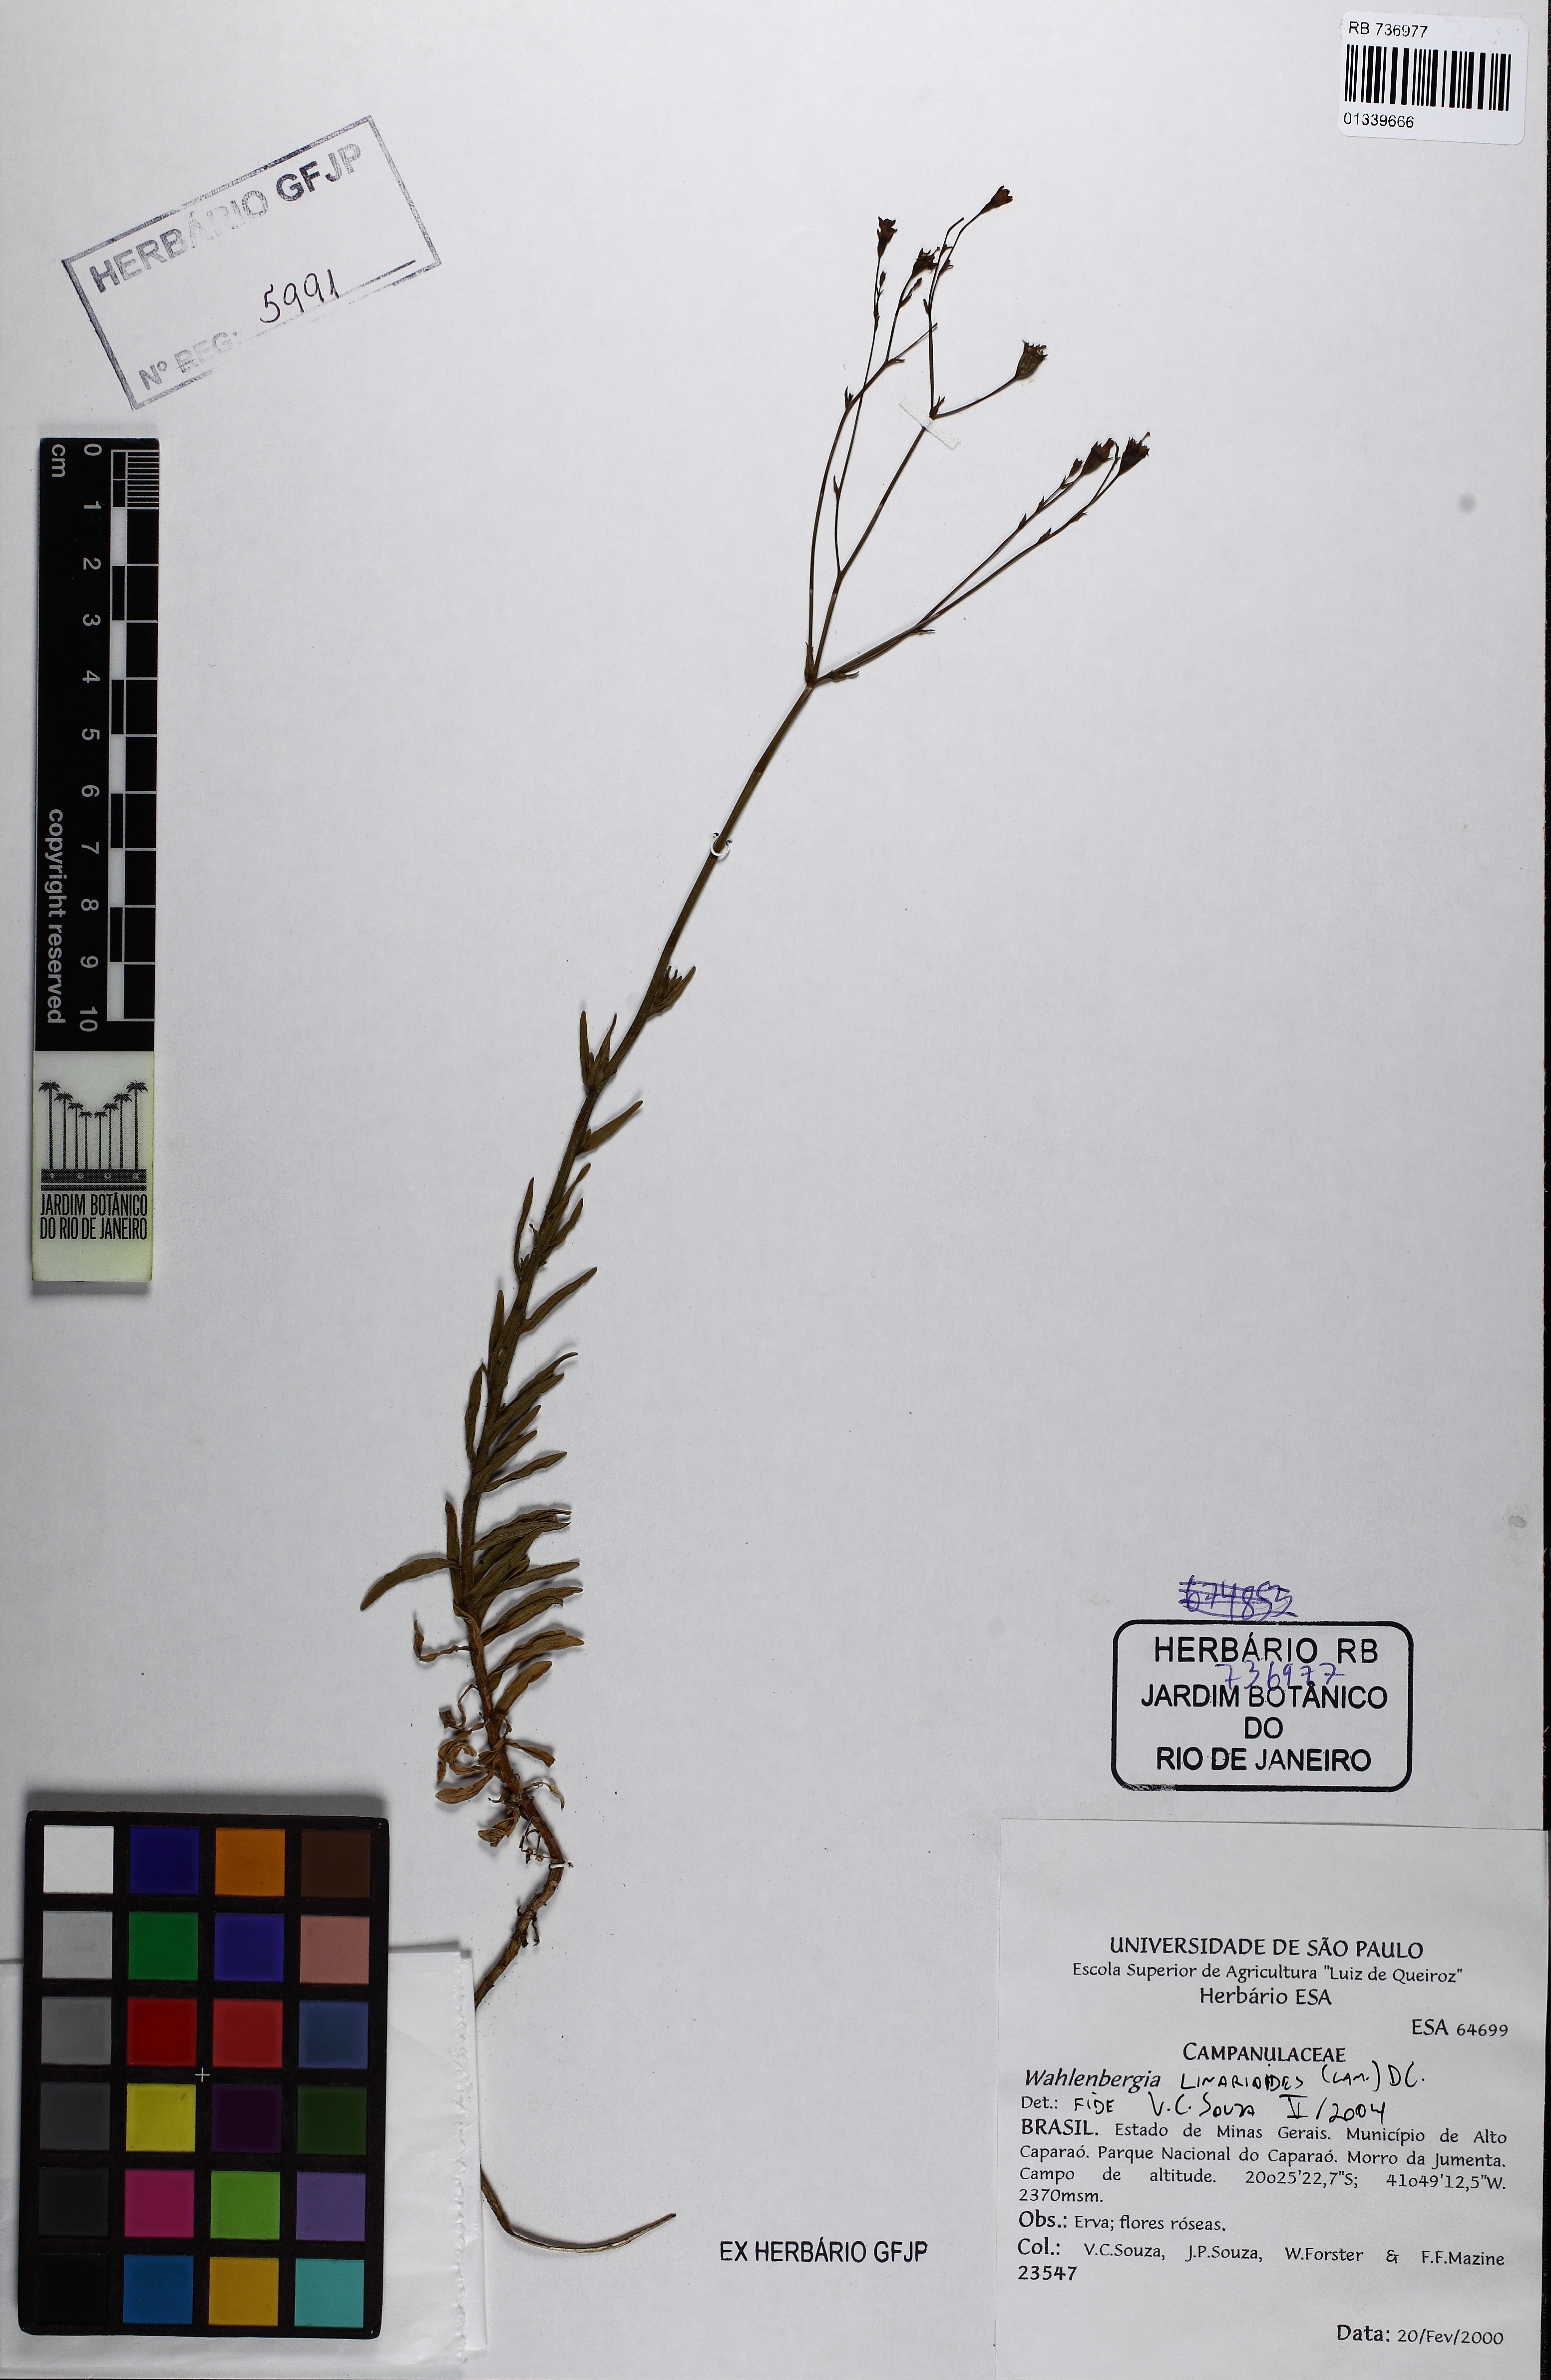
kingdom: Plantae
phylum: Tracheophyta
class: Magnoliopsida
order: Asterales
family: Campanulaceae
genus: Wahlenbergia
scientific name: Wahlenbergia linarioides
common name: Tuffybells
